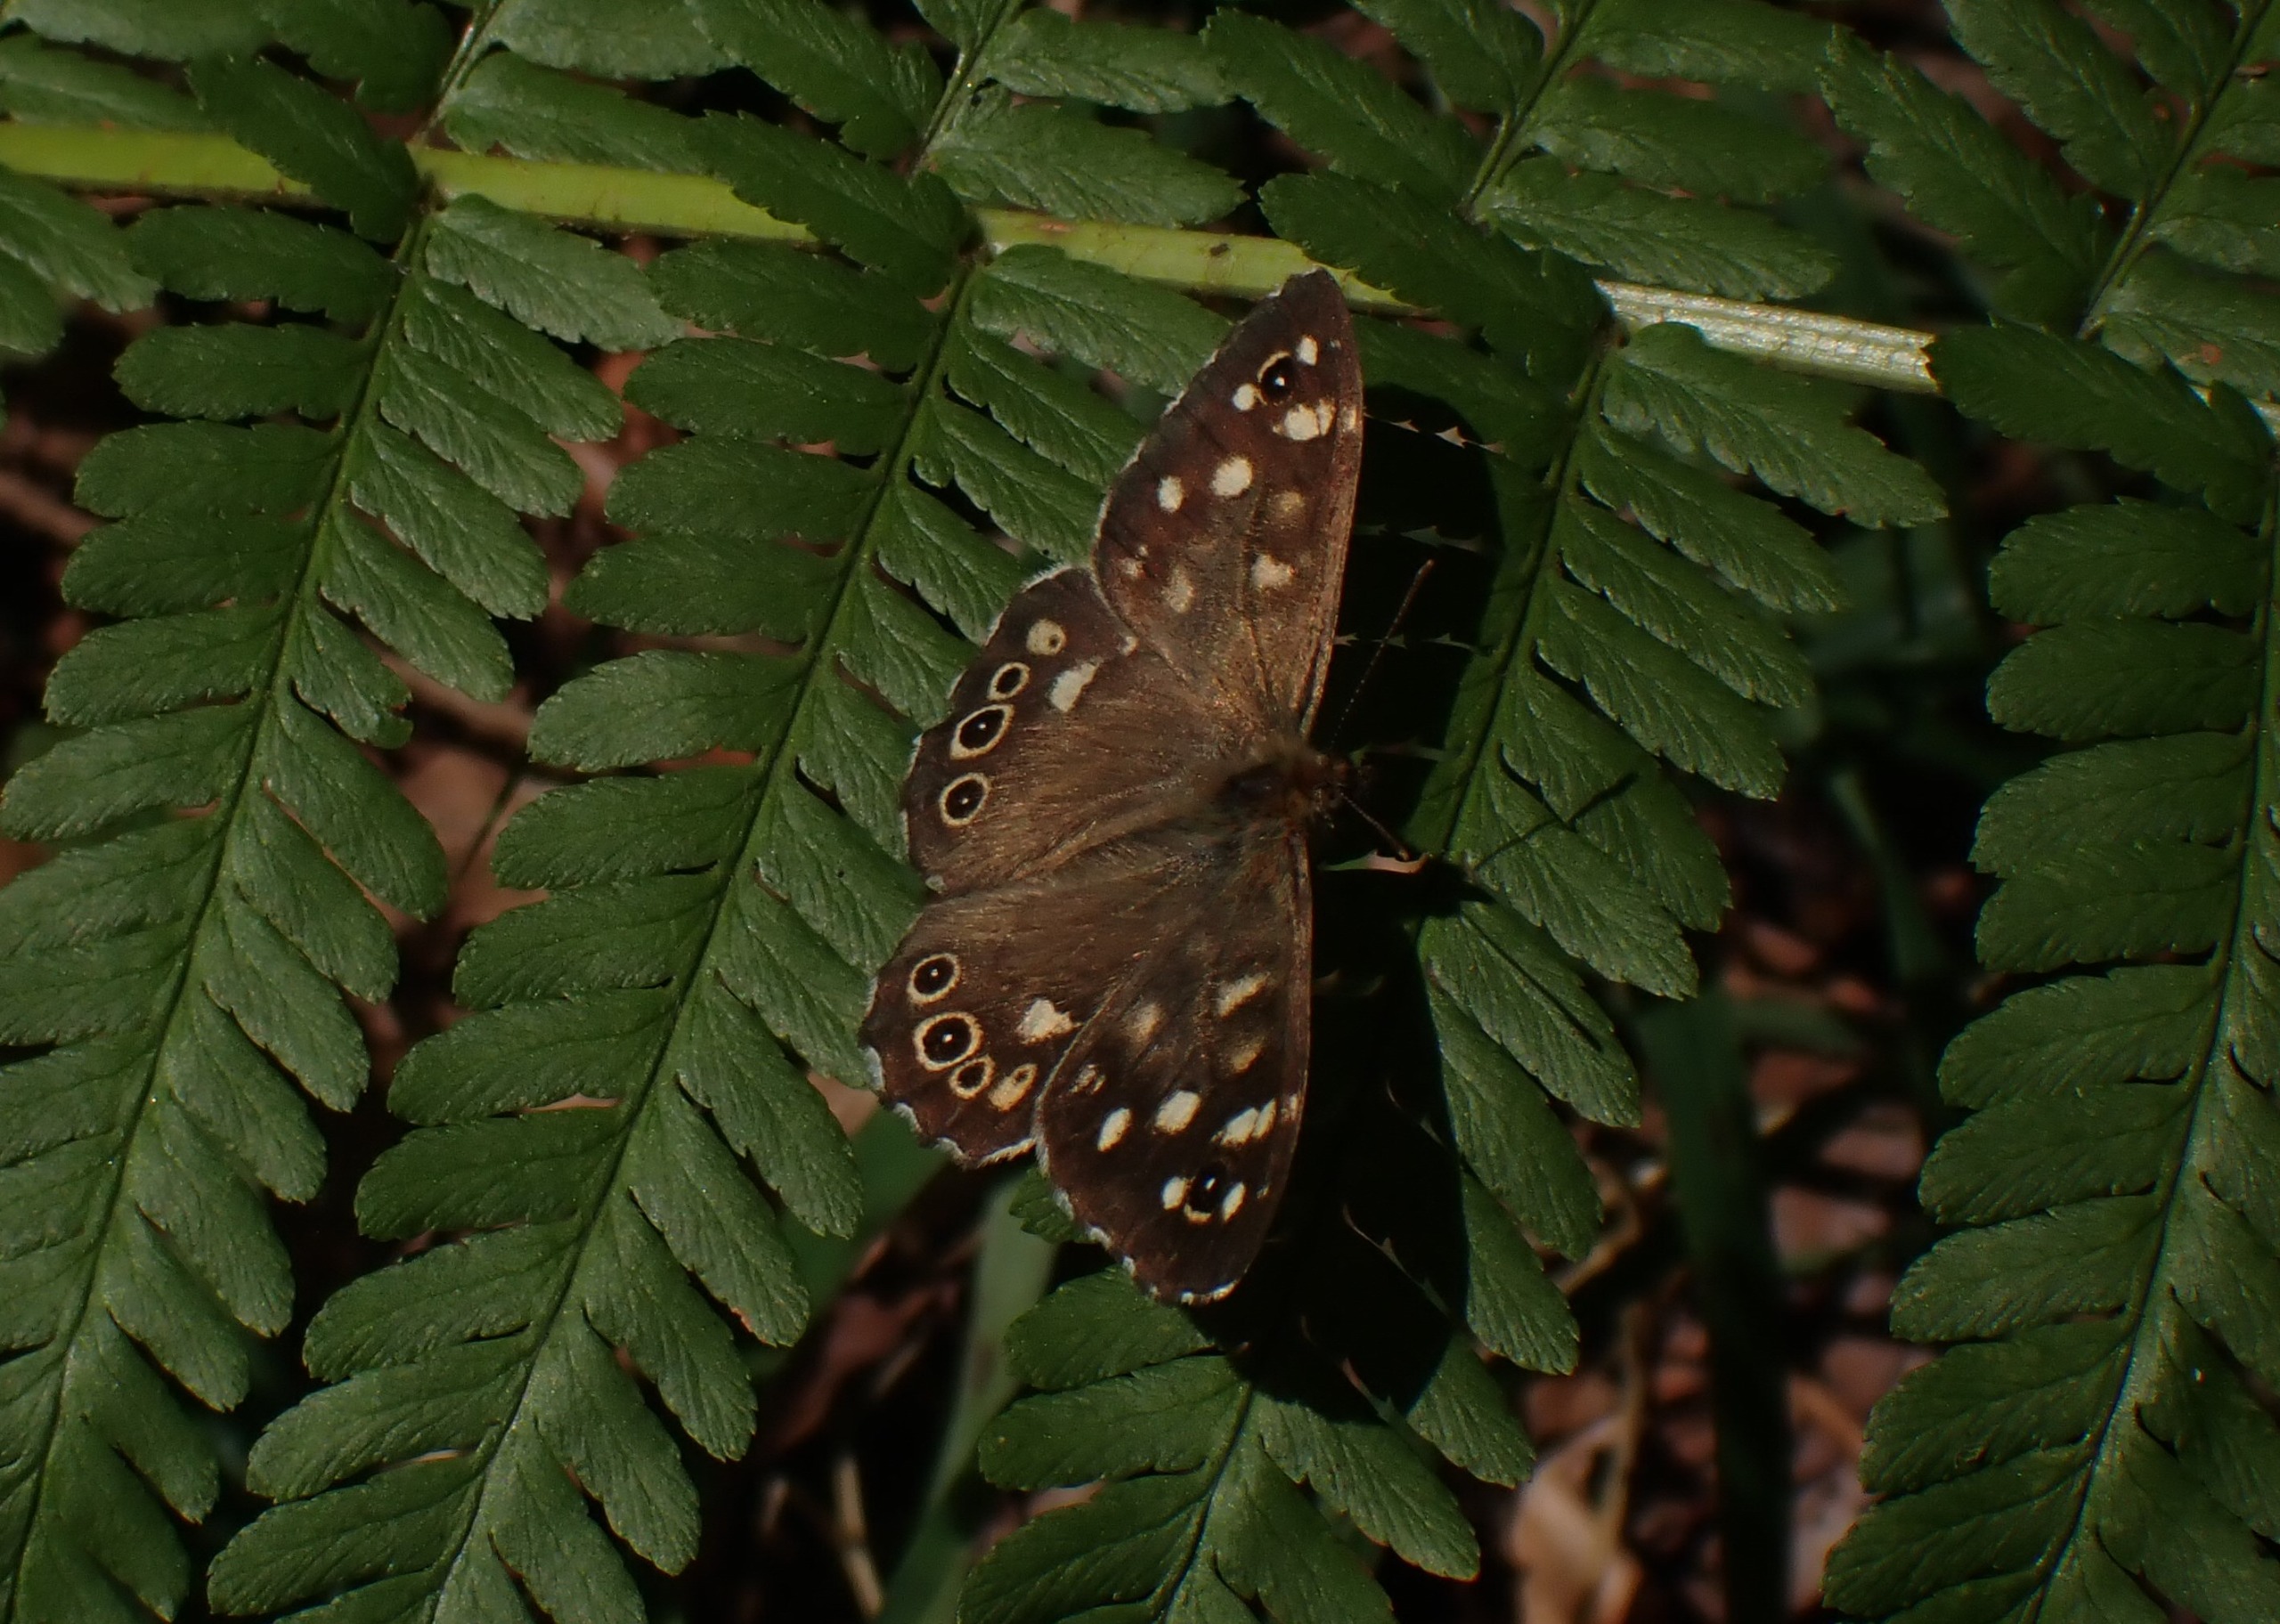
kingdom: Animalia
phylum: Arthropoda
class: Insecta
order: Lepidoptera
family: Nymphalidae
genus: Pararge
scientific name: Pararge aegeria
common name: Skovrandøje
